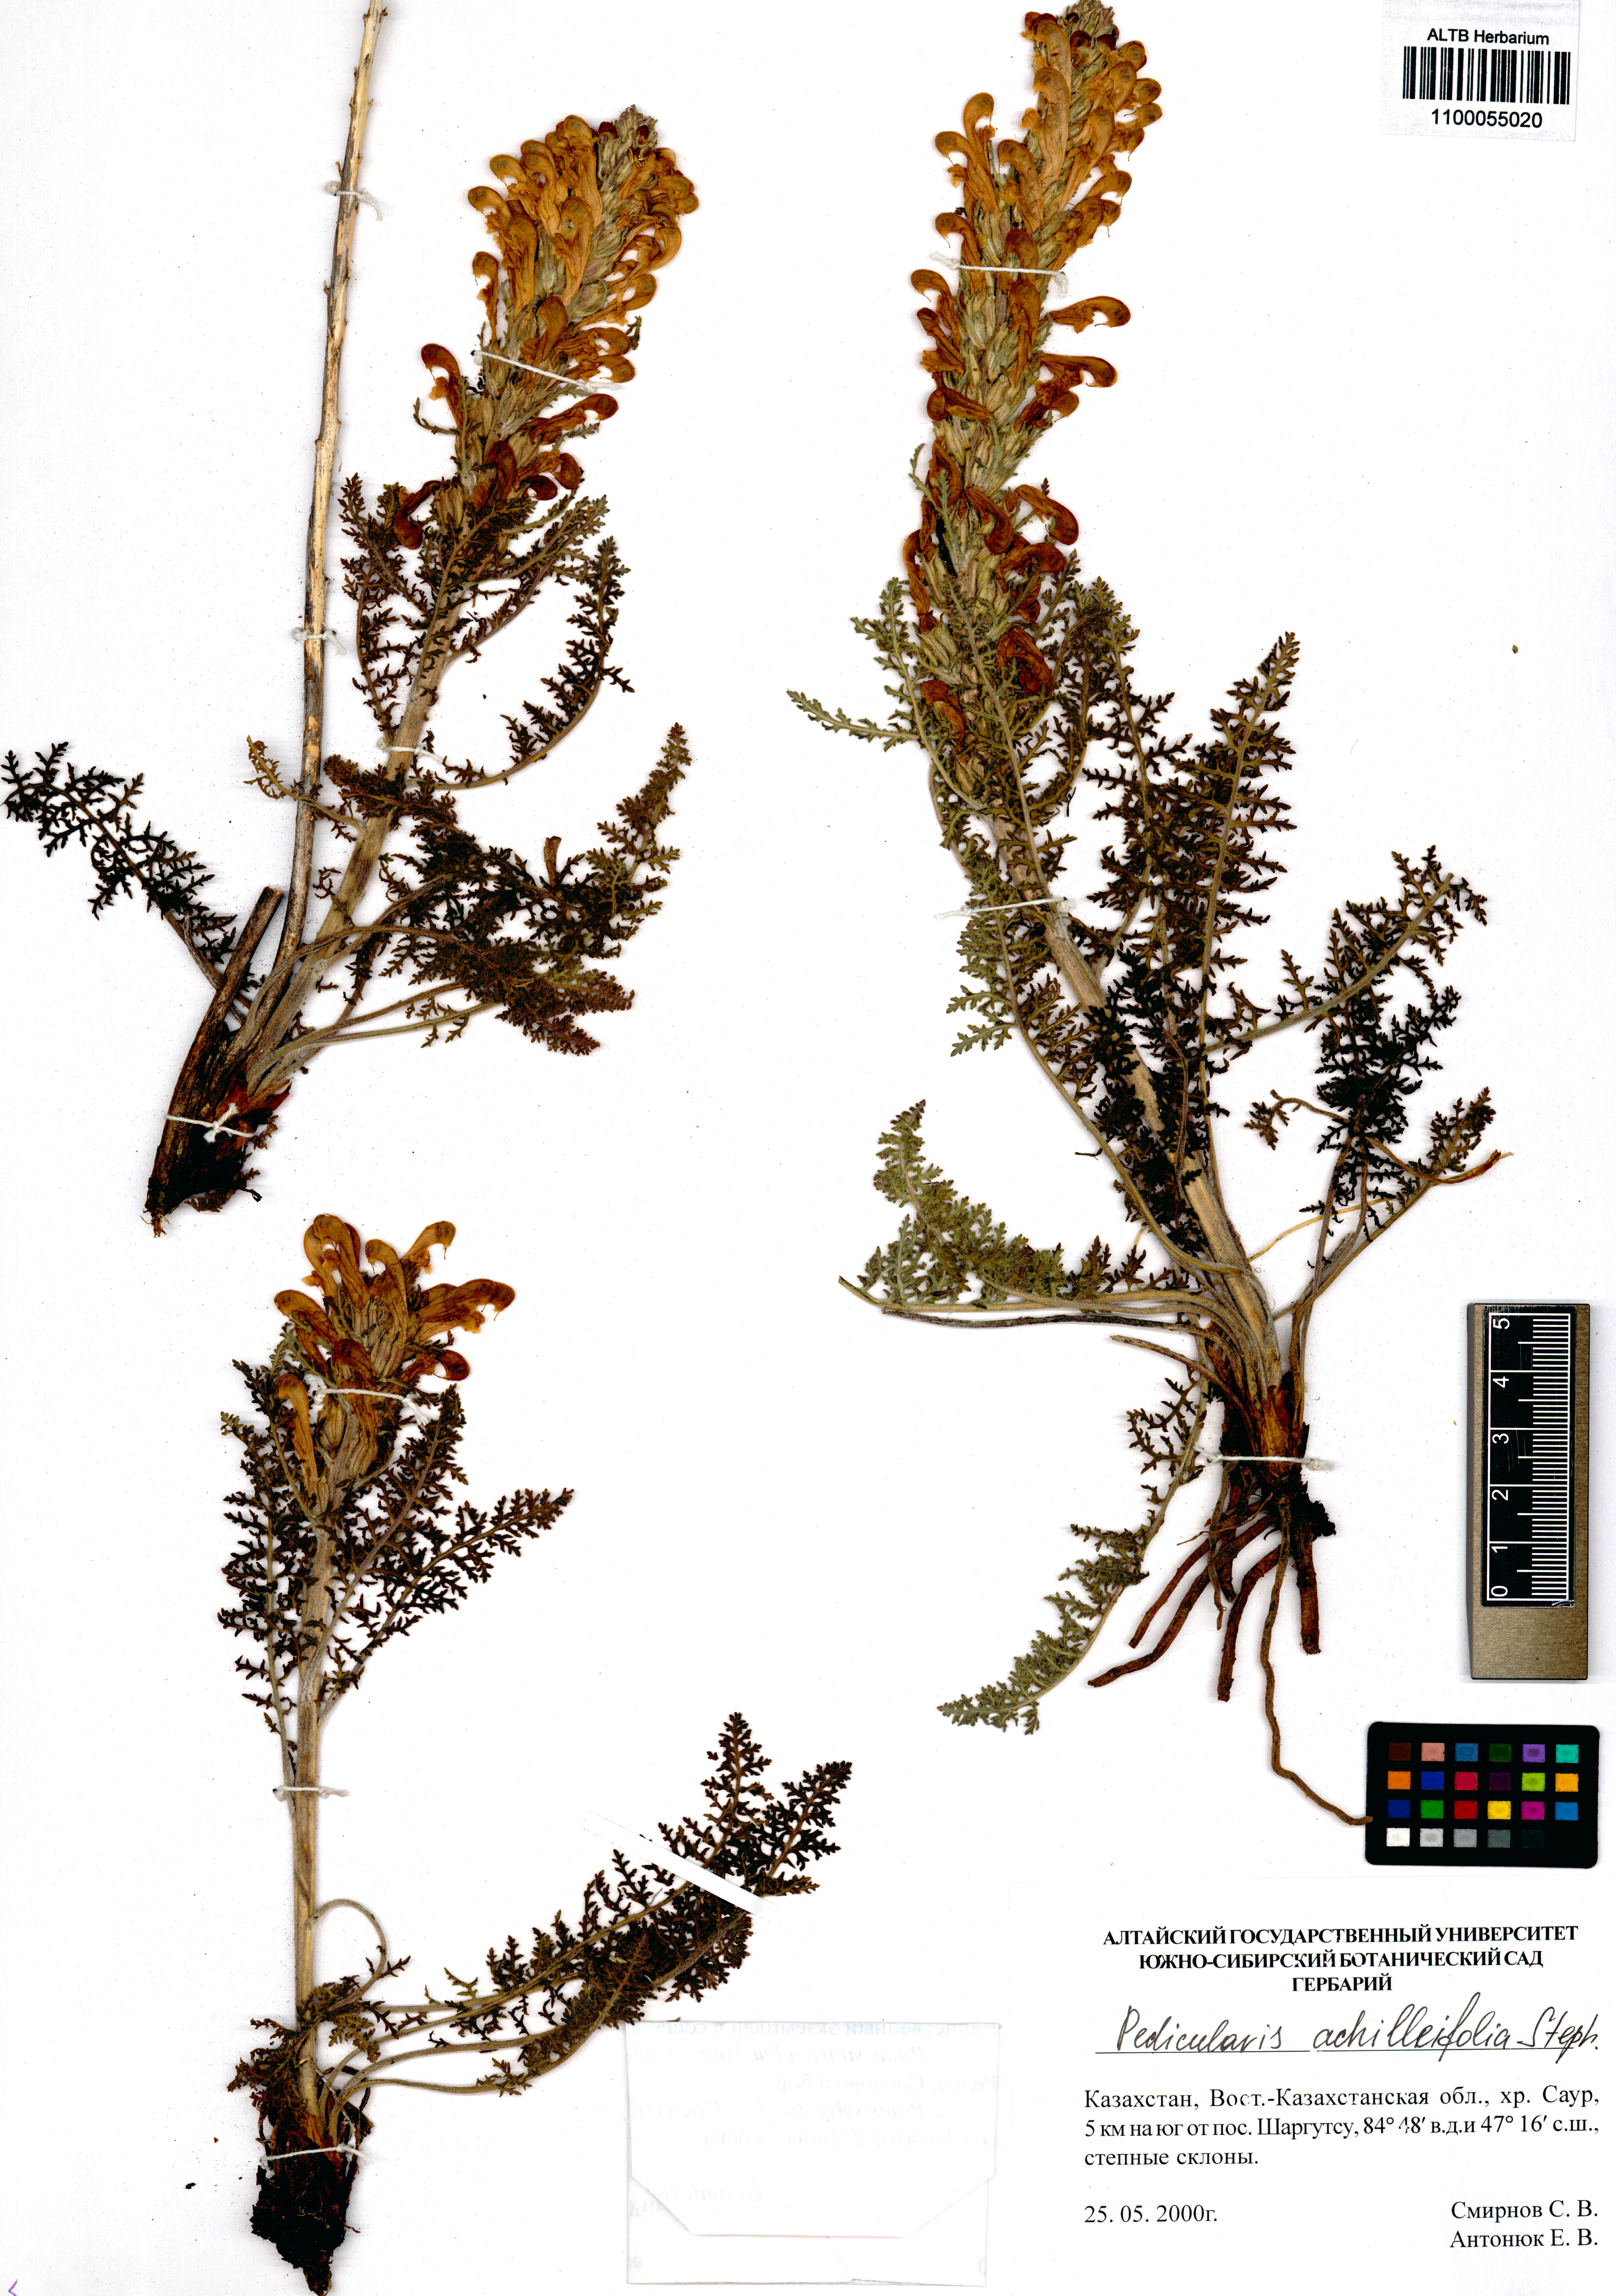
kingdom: Plantae
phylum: Tracheophyta
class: Magnoliopsida
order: Lamiales
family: Orobanchaceae
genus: Pedicularis
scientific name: Pedicularis achilleifolia
